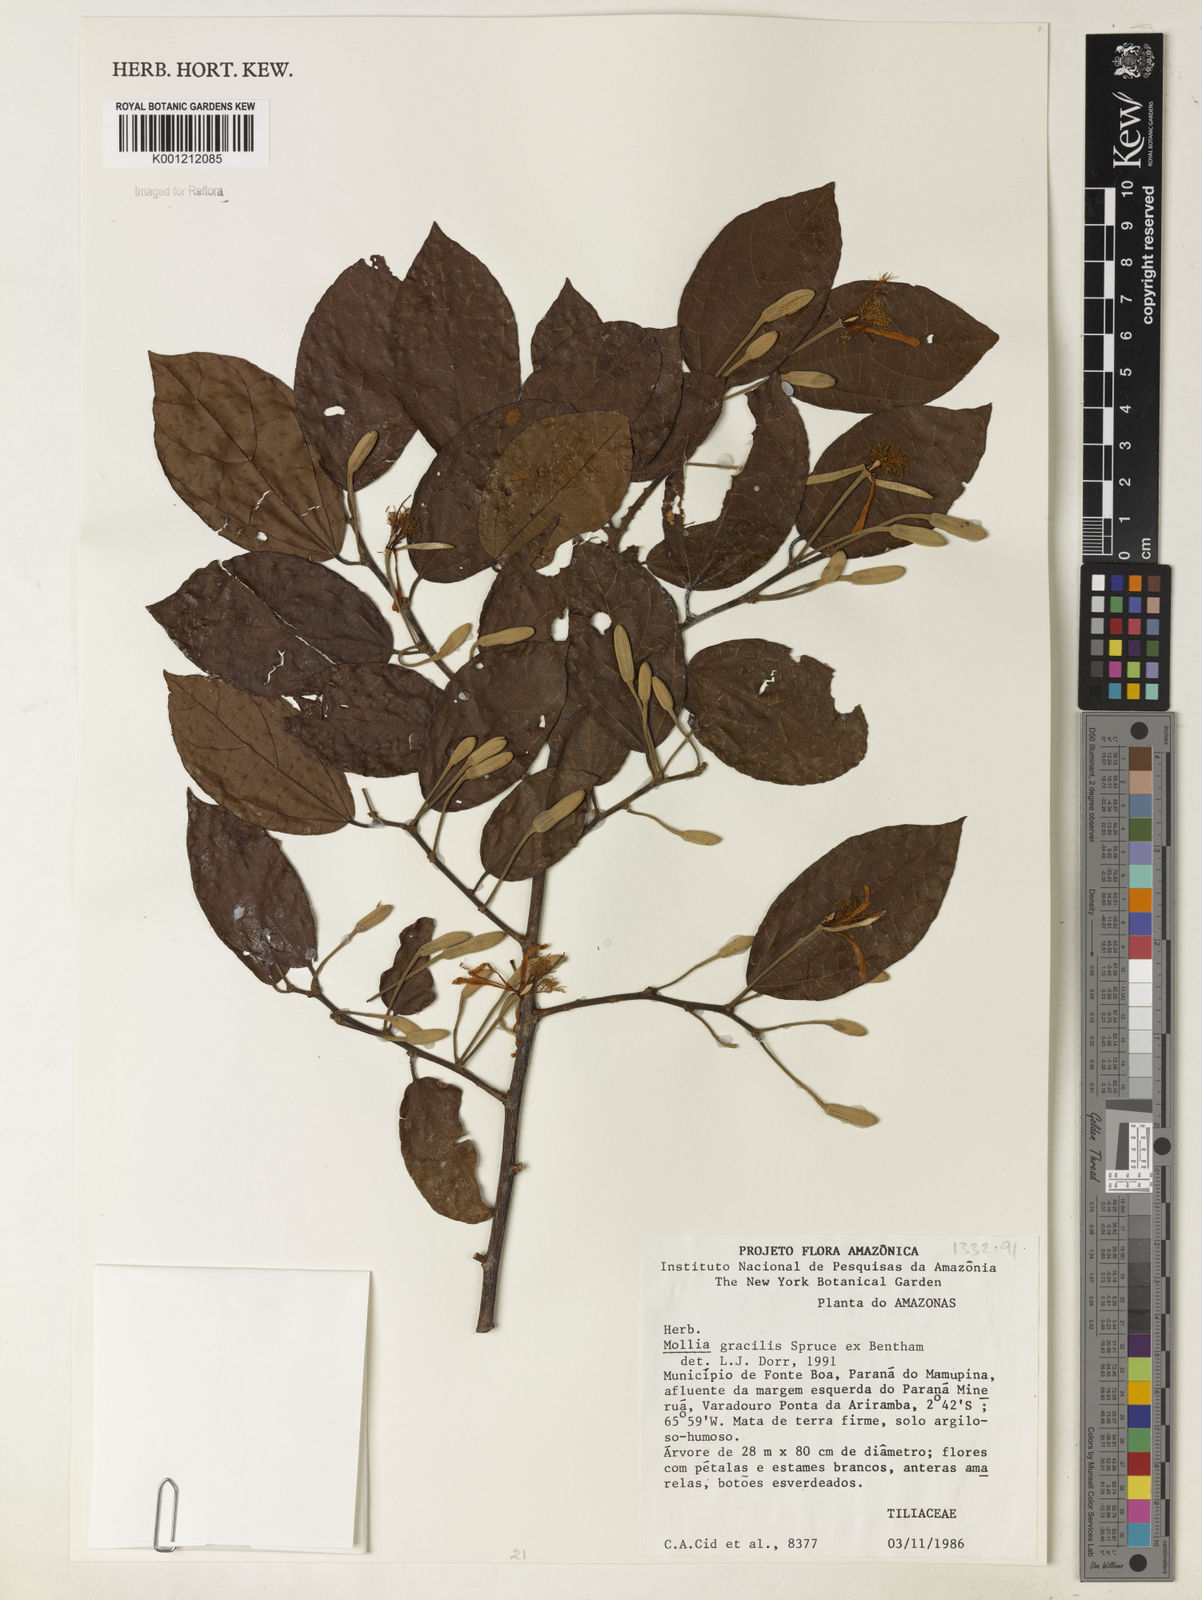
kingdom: Plantae
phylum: Tracheophyta
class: Magnoliopsida
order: Malvales
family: Malvaceae
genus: Mollia
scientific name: Mollia gracilis
